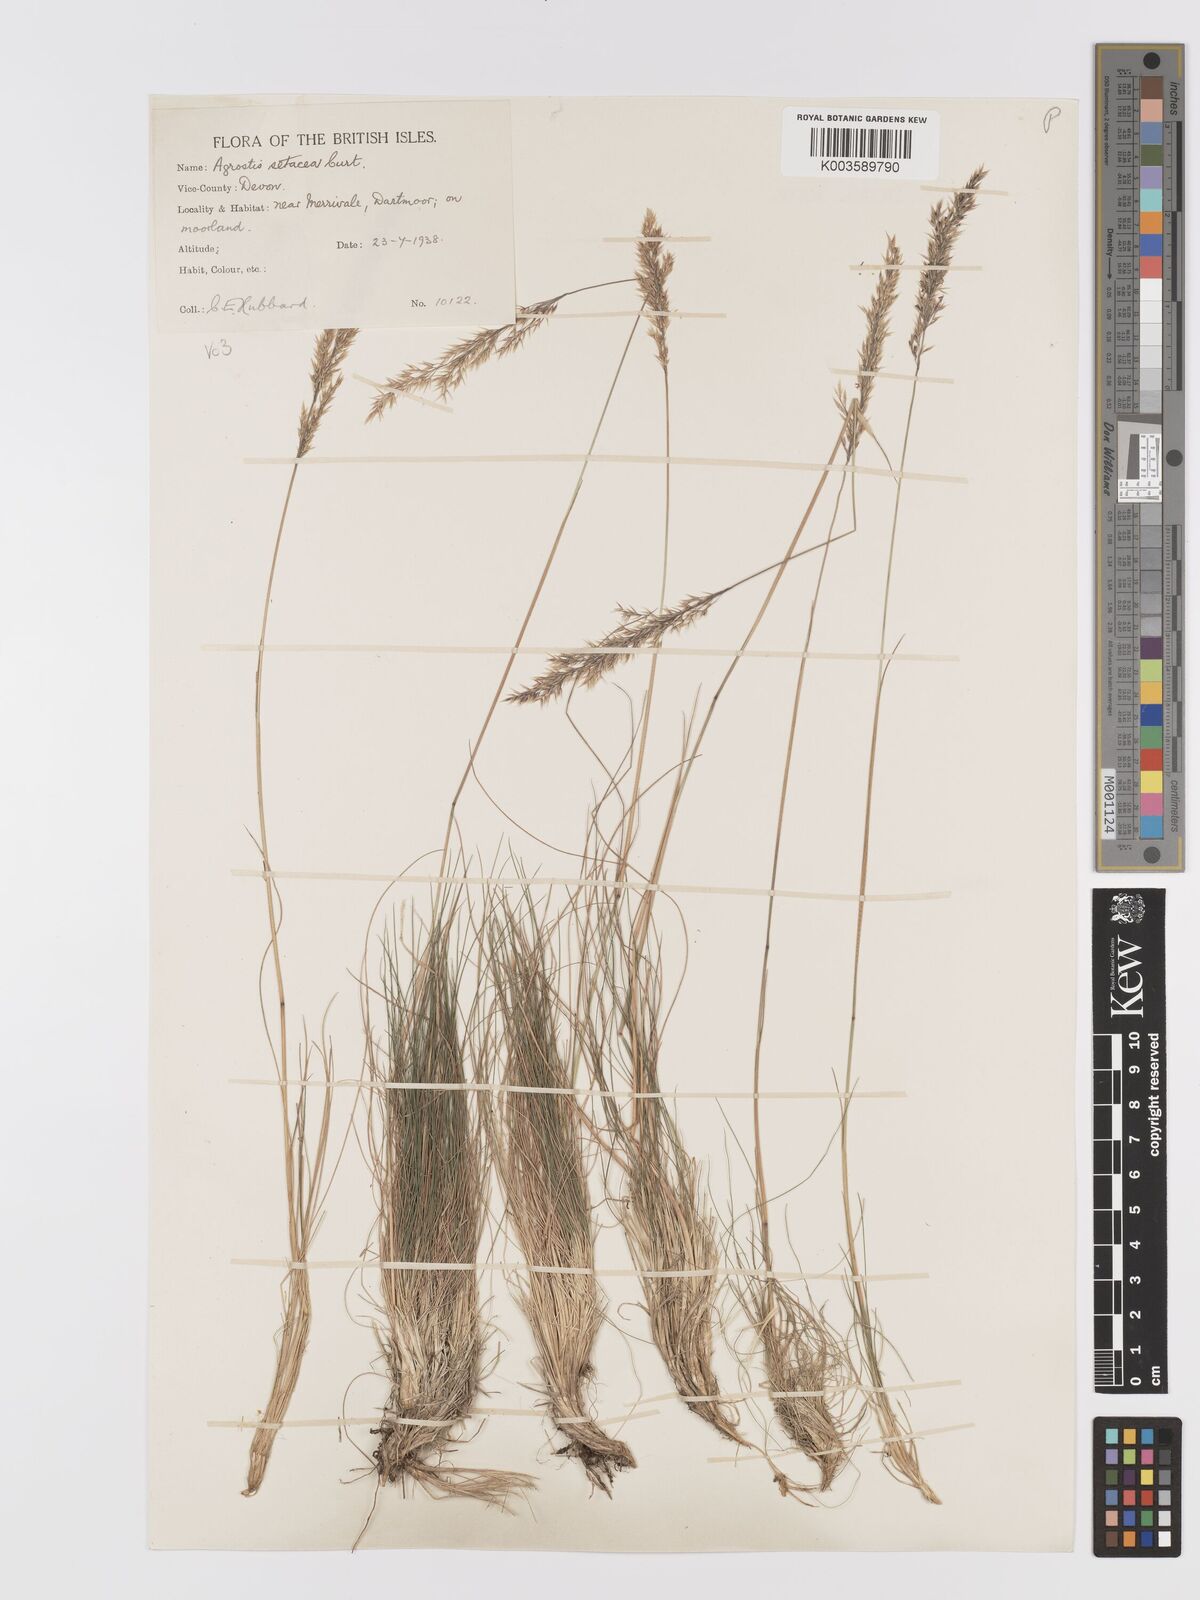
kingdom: Plantae
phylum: Tracheophyta
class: Liliopsida
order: Poales
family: Poaceae
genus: Alpagrostis
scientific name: Alpagrostis setacea
